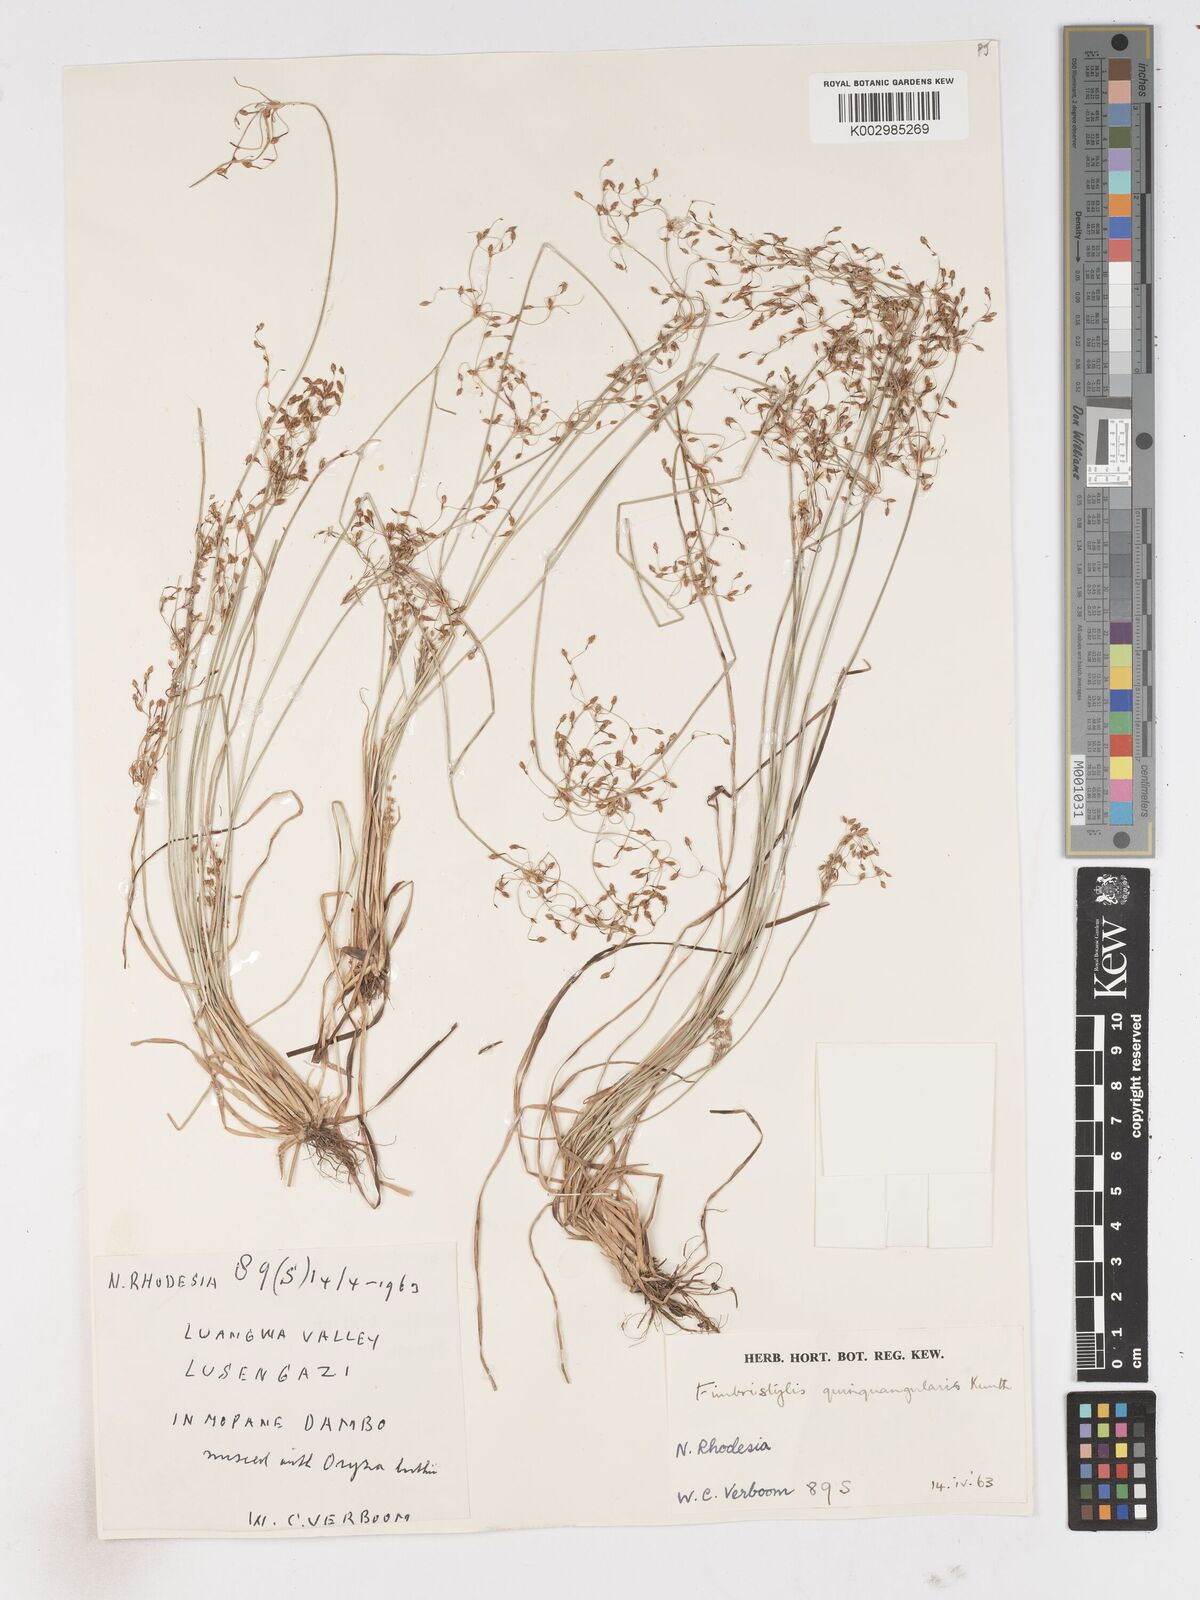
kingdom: Plantae
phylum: Tracheophyta
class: Liliopsida
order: Poales
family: Cyperaceae
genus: Fimbristylis
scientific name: Fimbristylis quinquangularis
